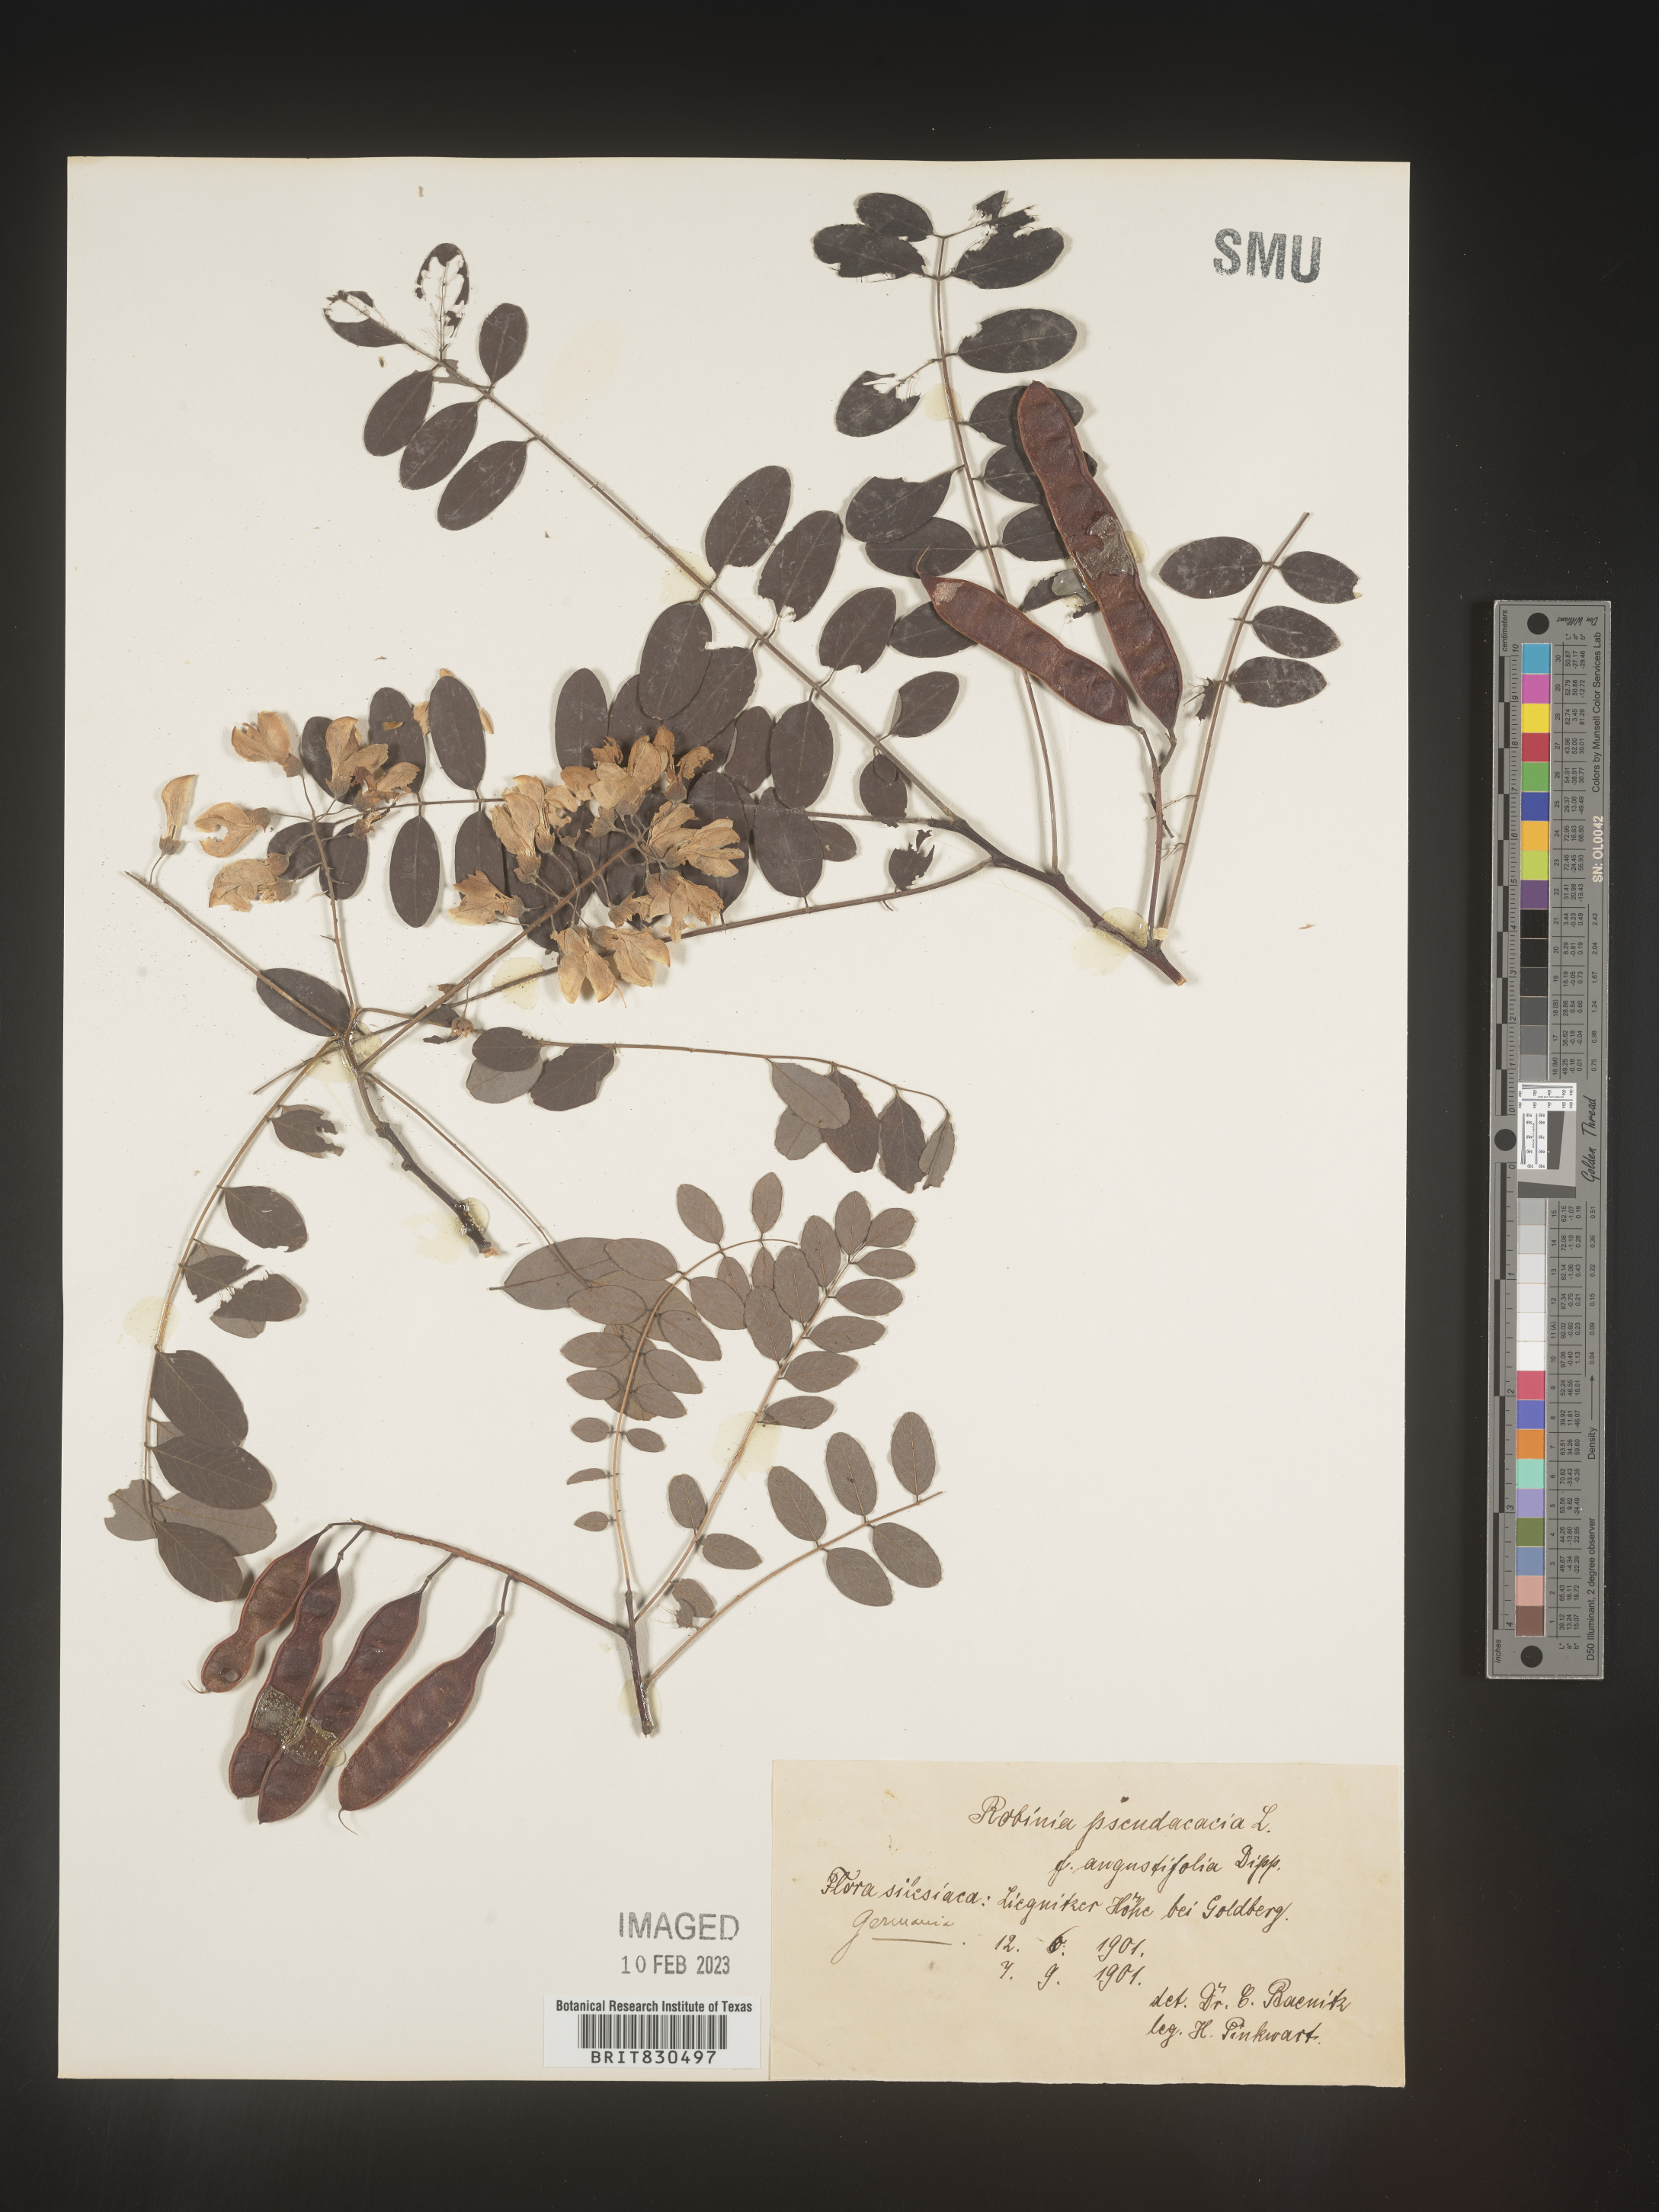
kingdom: Plantae
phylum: Tracheophyta
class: Magnoliopsida
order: Fabales
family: Fabaceae
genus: Robinia
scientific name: Robinia
